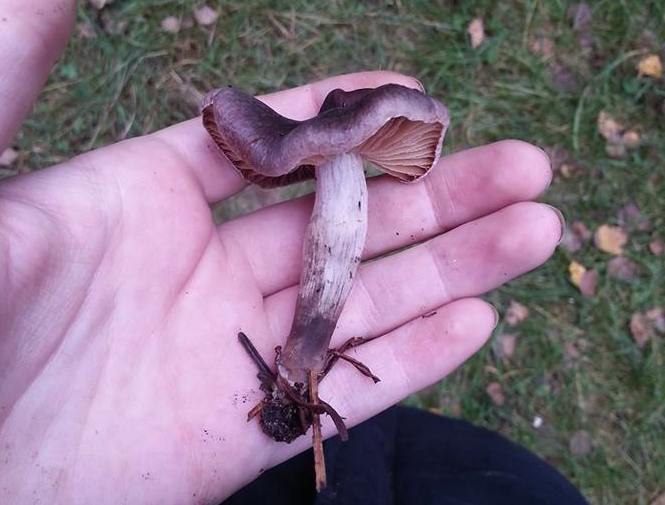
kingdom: Fungi
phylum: Basidiomycota
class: Agaricomycetes
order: Agaricales
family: Cortinariaceae
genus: Cortinarius
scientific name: Cortinarius fuscoalbus
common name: lysbladet slørhat
